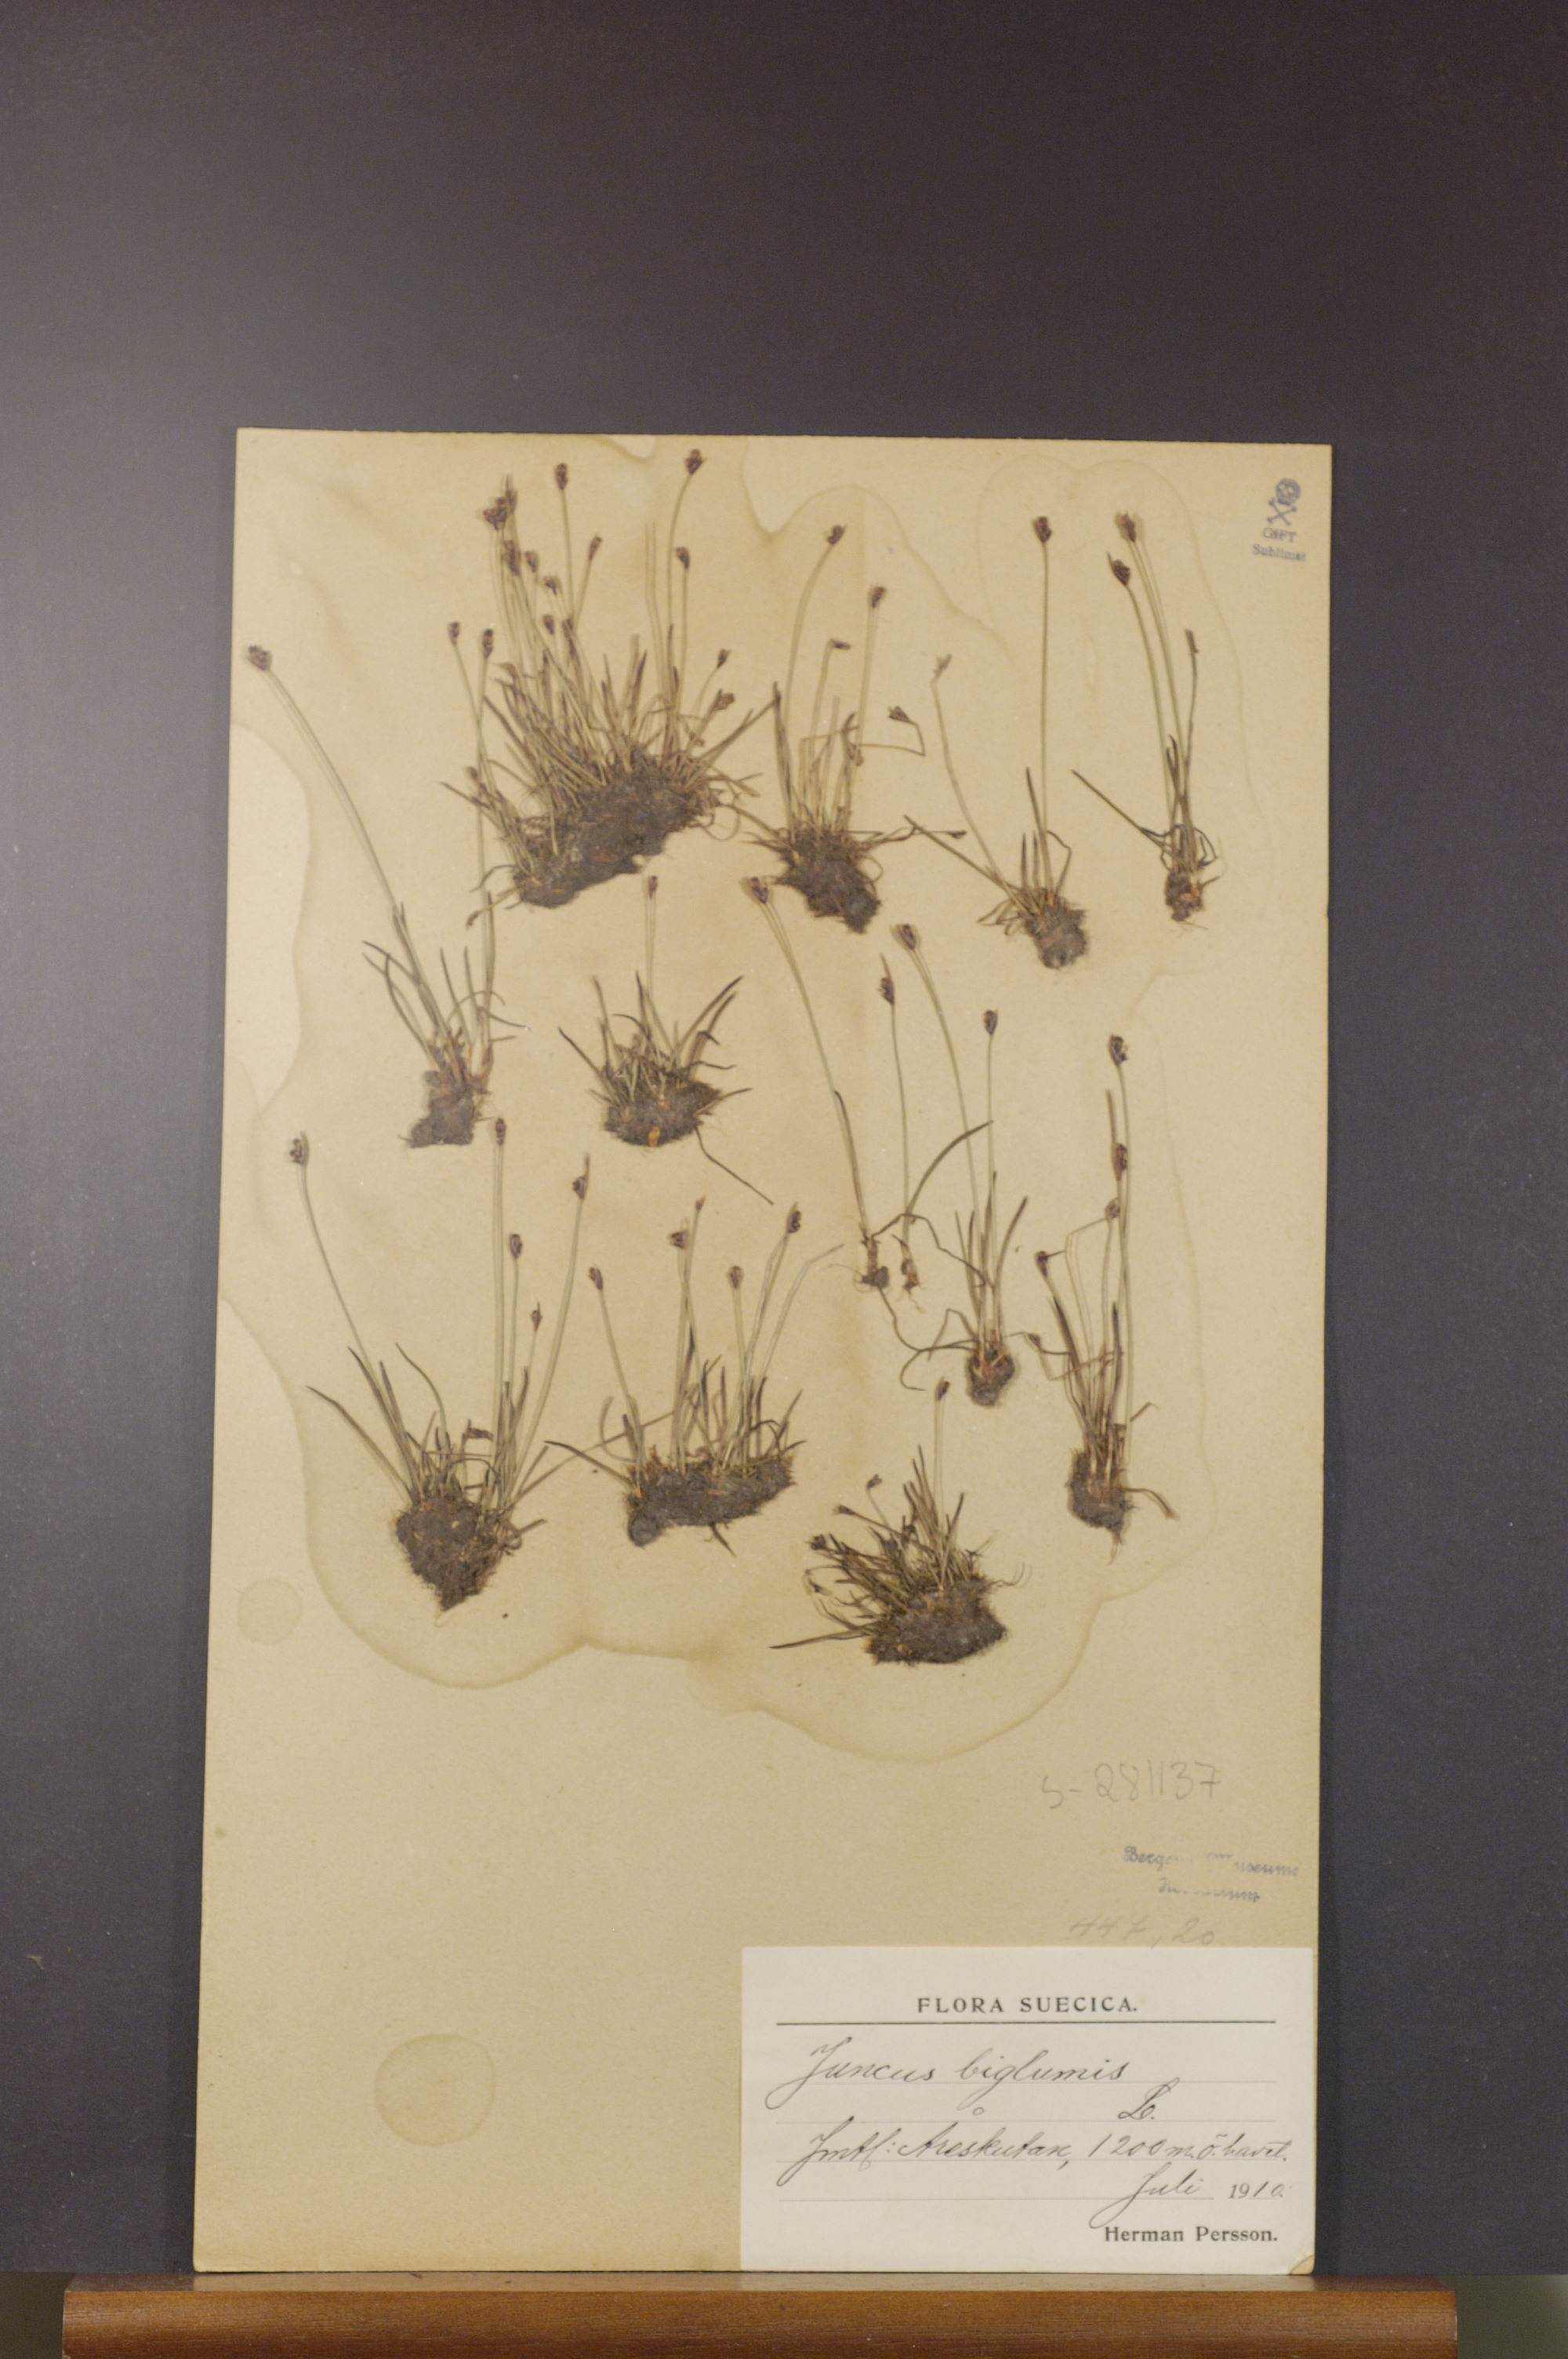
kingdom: Plantae
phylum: Tracheophyta
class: Liliopsida
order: Poales
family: Juncaceae
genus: Juncus
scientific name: Juncus biglumis
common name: Two-flowered rush
